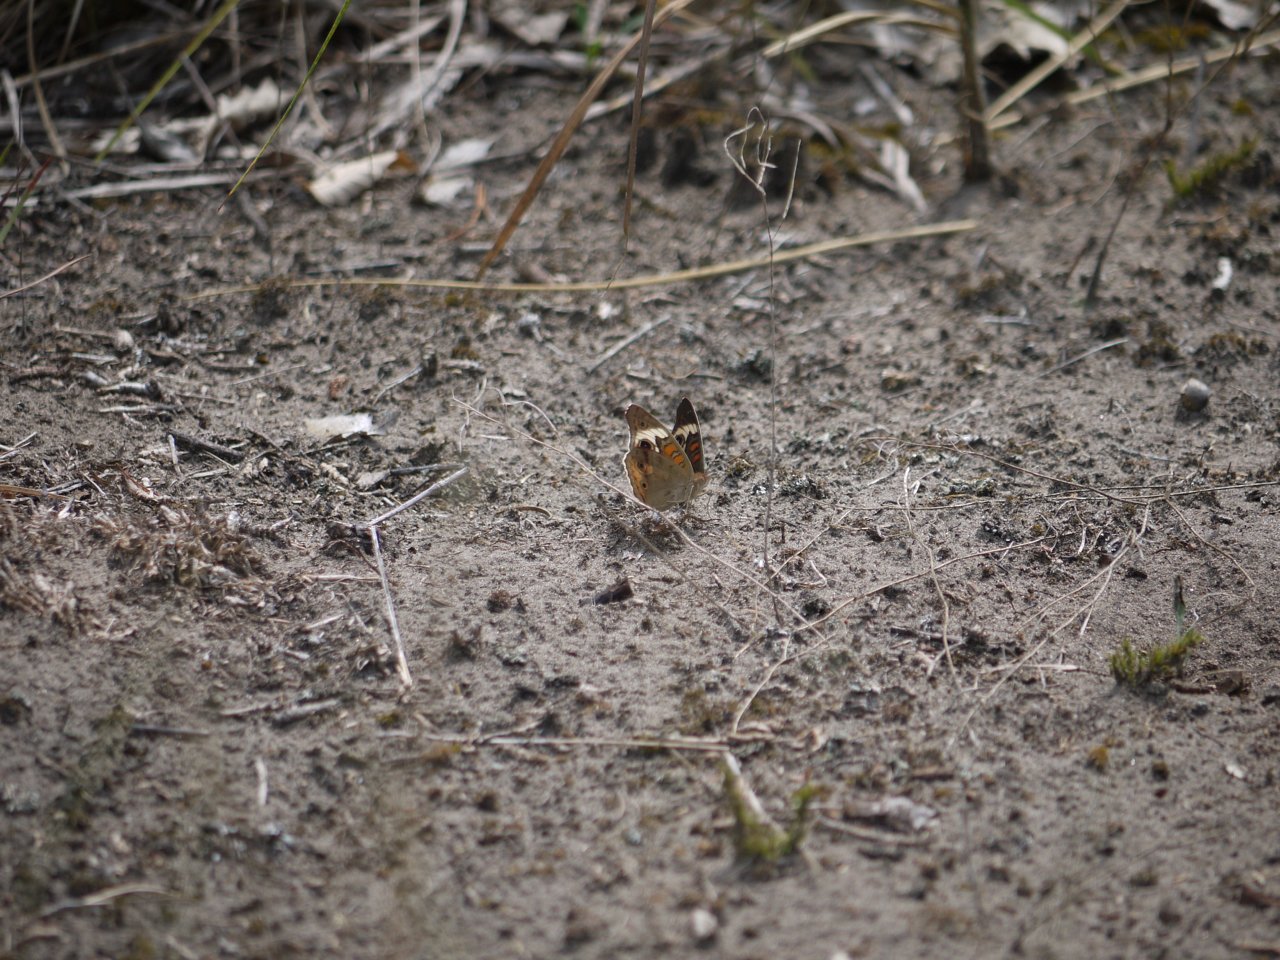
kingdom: Animalia
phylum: Arthropoda
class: Insecta
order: Lepidoptera
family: Nymphalidae
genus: Junonia
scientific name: Junonia coenia
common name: Common Buckeye
